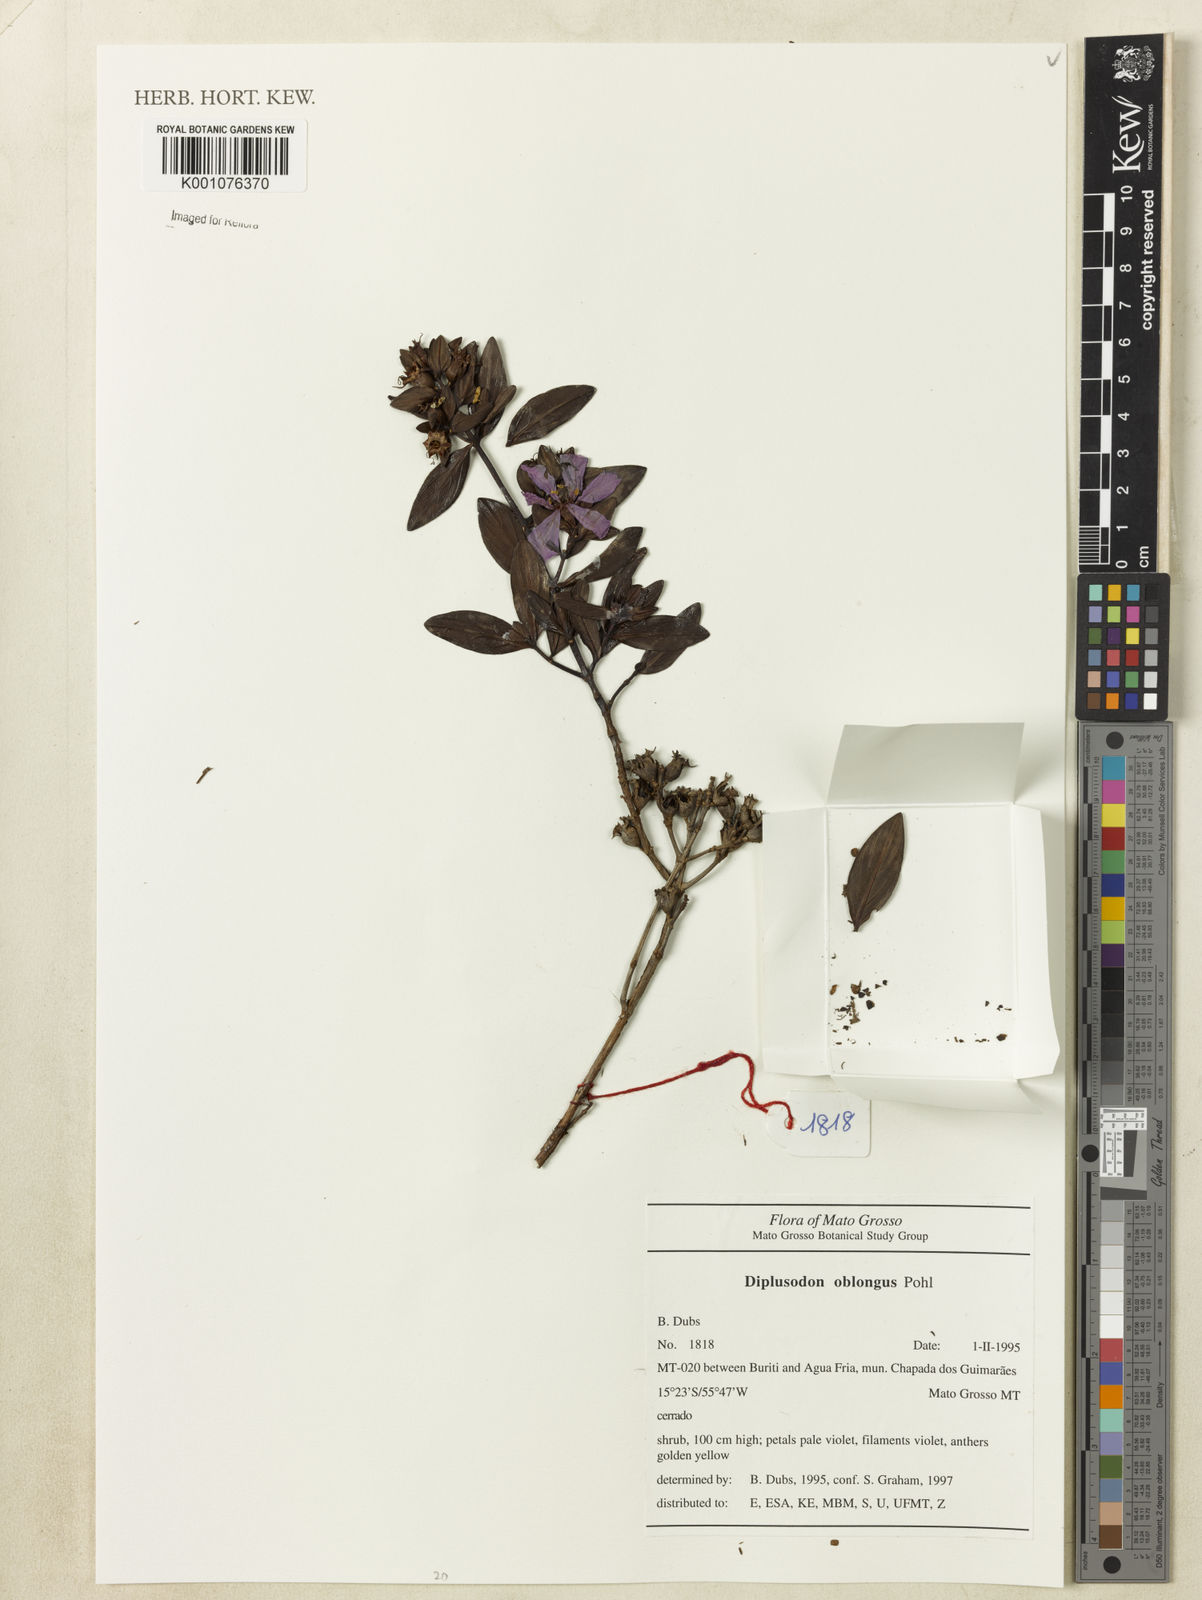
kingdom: Plantae
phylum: Tracheophyta
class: Magnoliopsida
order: Myrtales
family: Lythraceae
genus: Diplusodon
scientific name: Diplusodon oblongus
